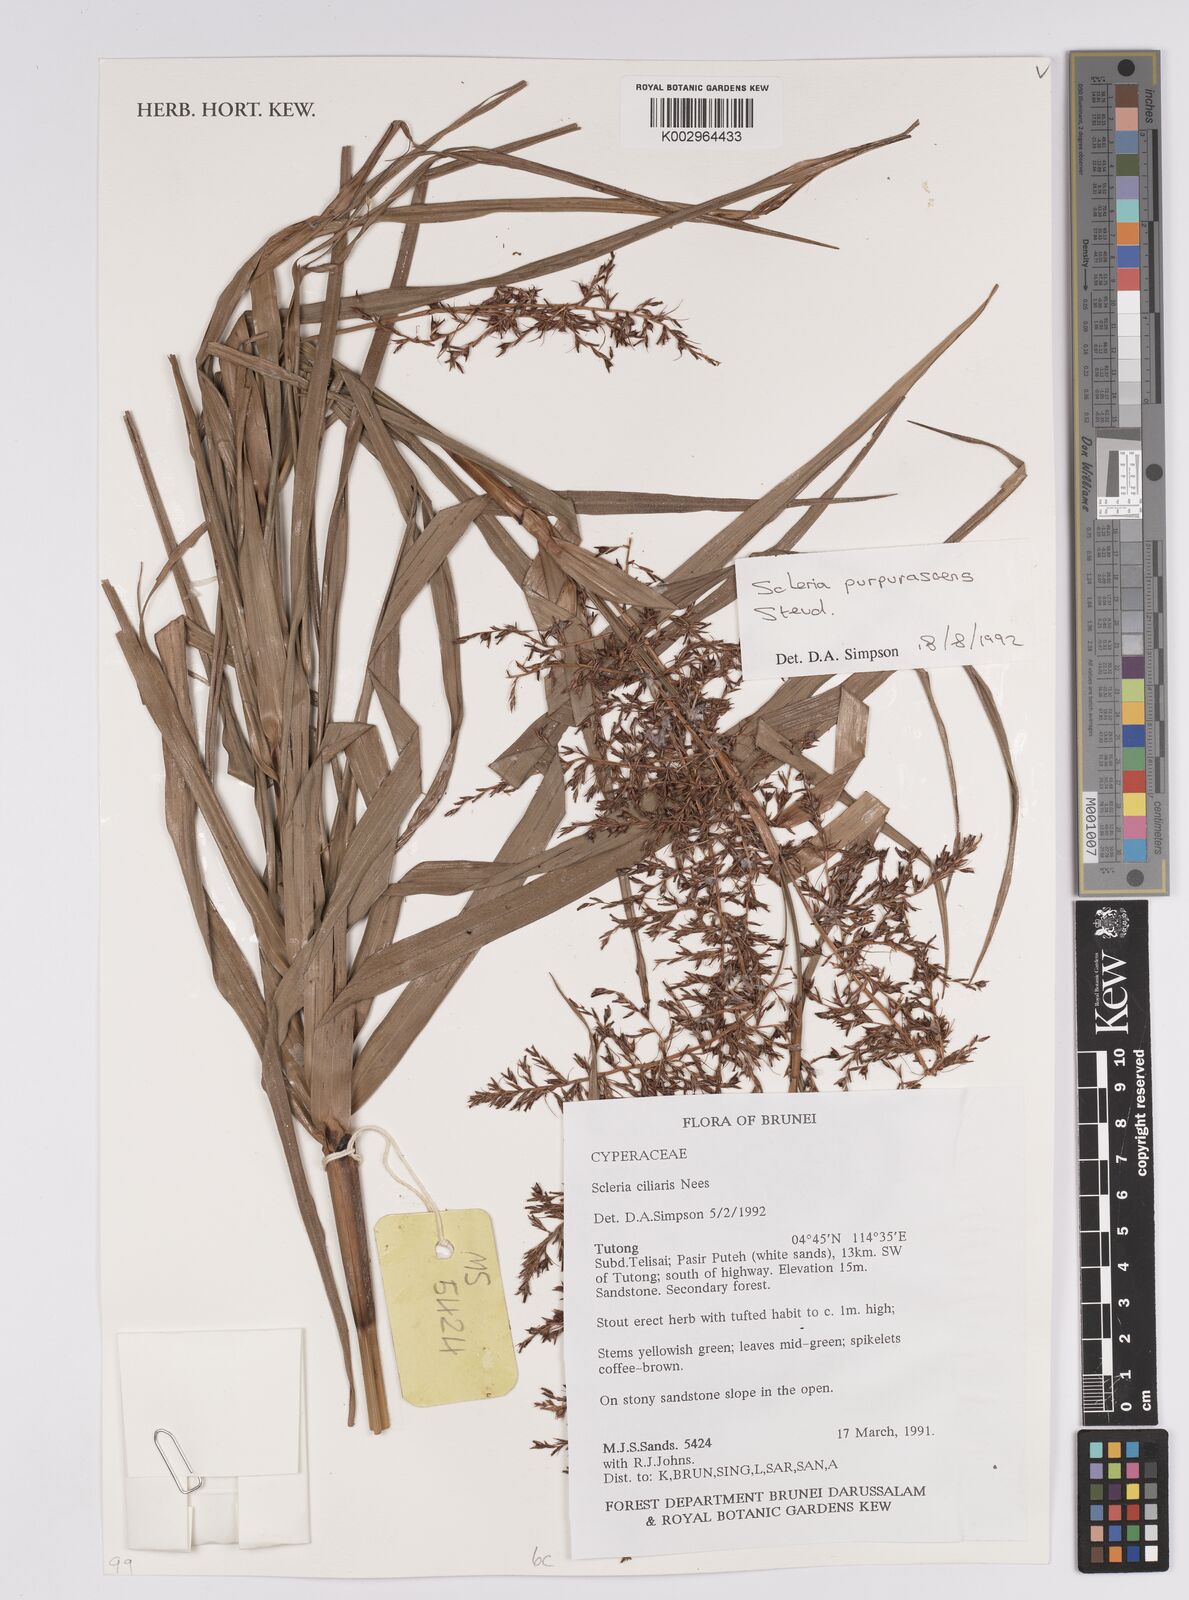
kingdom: Plantae
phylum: Tracheophyta
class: Liliopsida
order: Poales
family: Cyperaceae
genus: Scleria
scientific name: Scleria ciliaris
